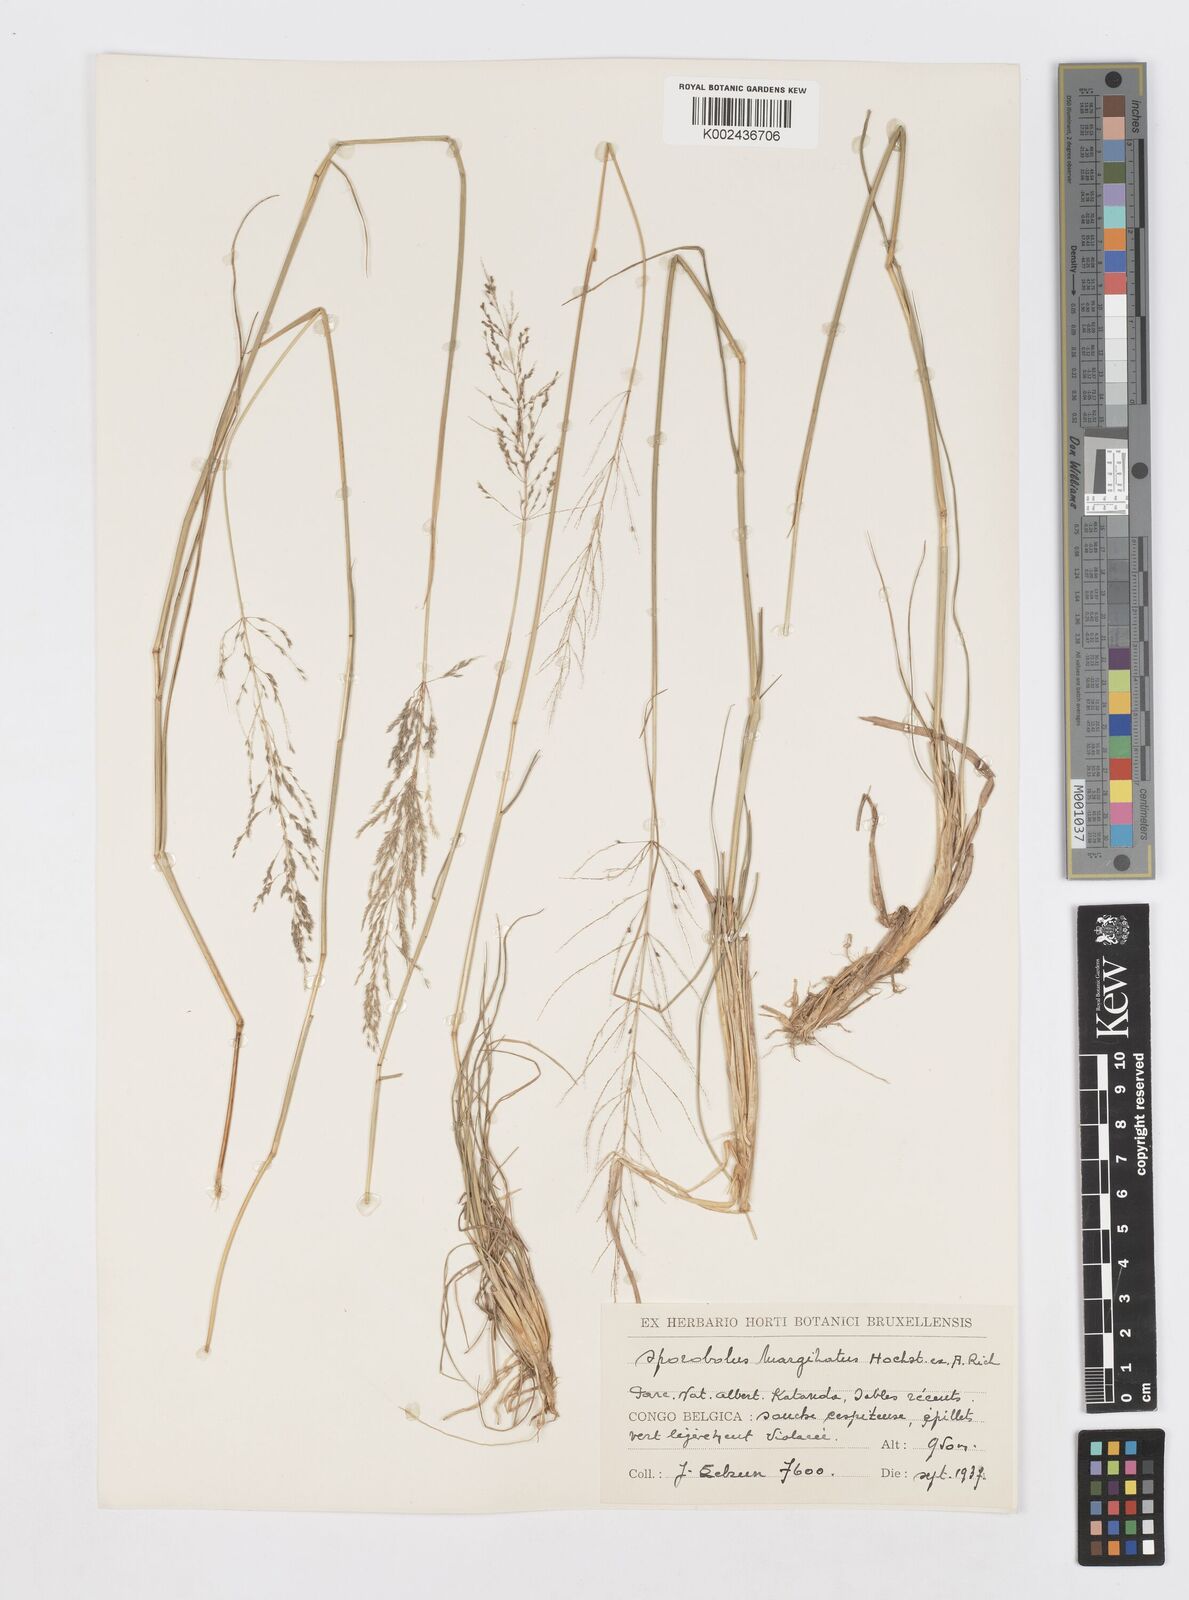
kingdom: Plantae
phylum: Tracheophyta
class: Liliopsida
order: Poales
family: Poaceae
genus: Sporobolus
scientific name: Sporobolus ioclados
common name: Pan dropseed
